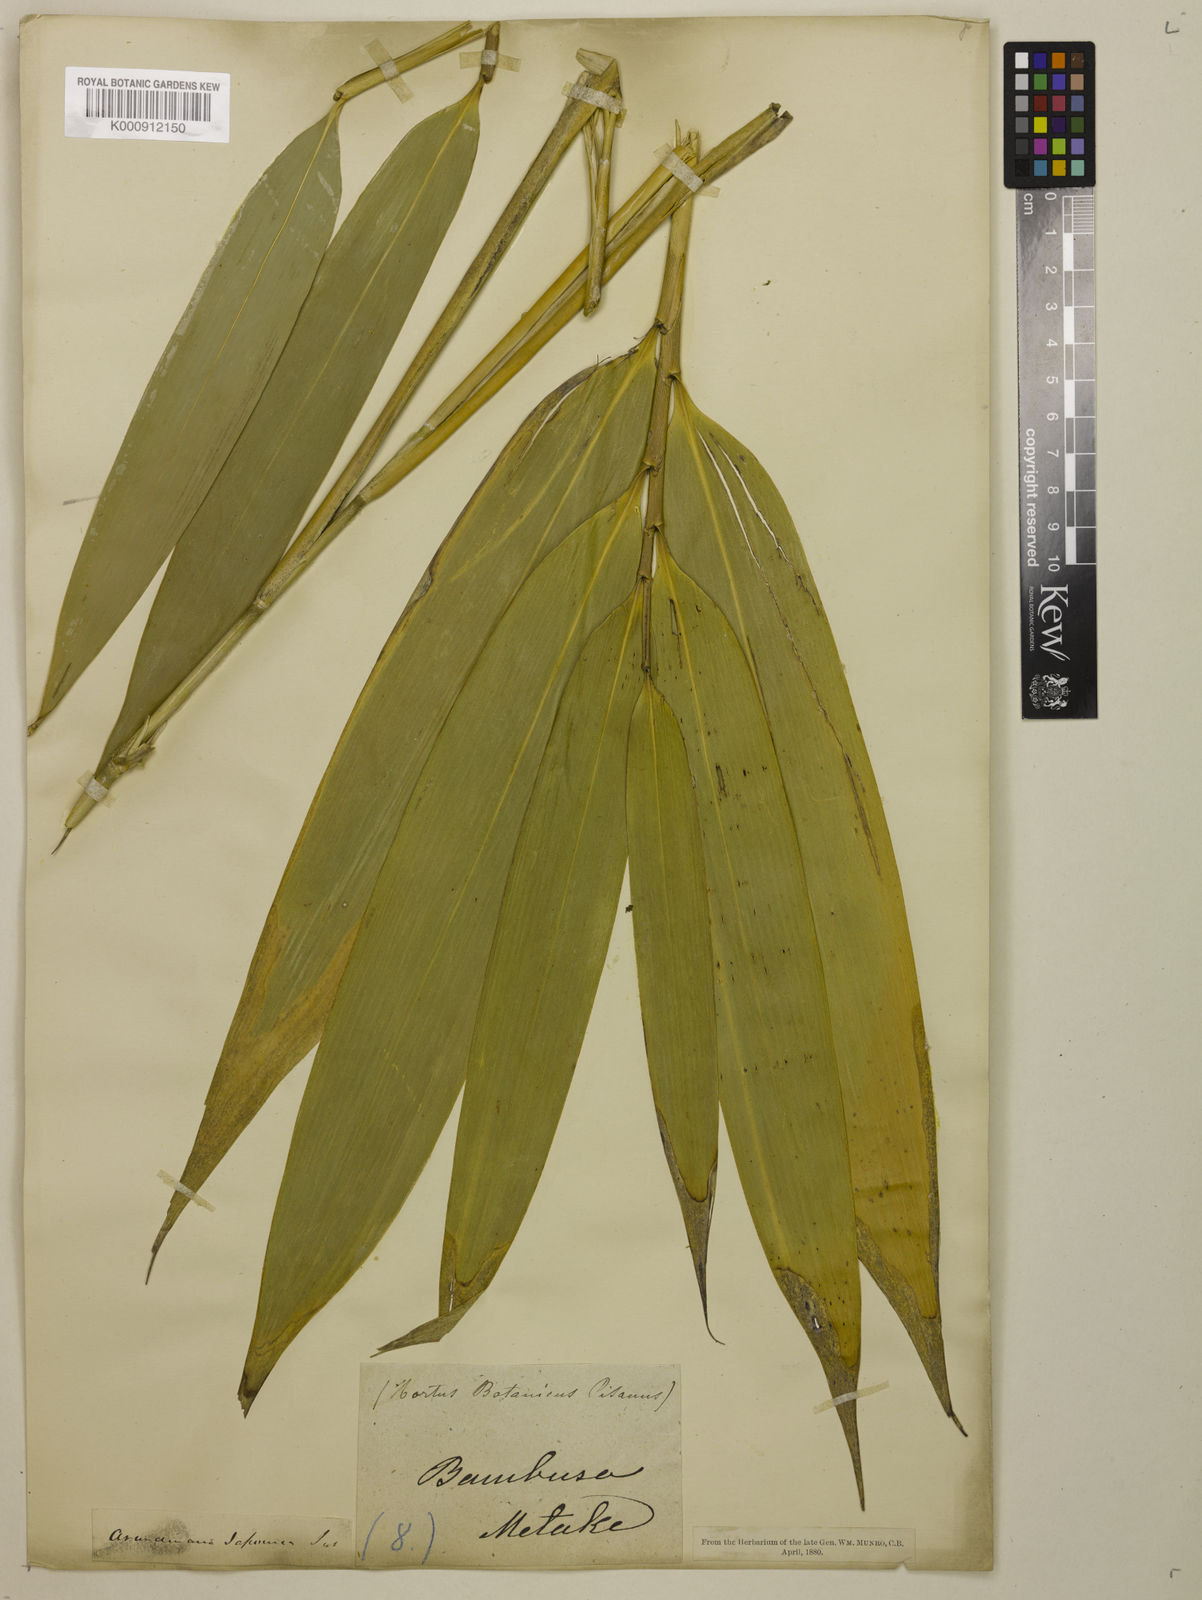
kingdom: Plantae
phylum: Tracheophyta
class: Liliopsida
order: Poales
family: Poaceae
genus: Pseudosasa
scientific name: Pseudosasa japonica
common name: Arrow bamboo
